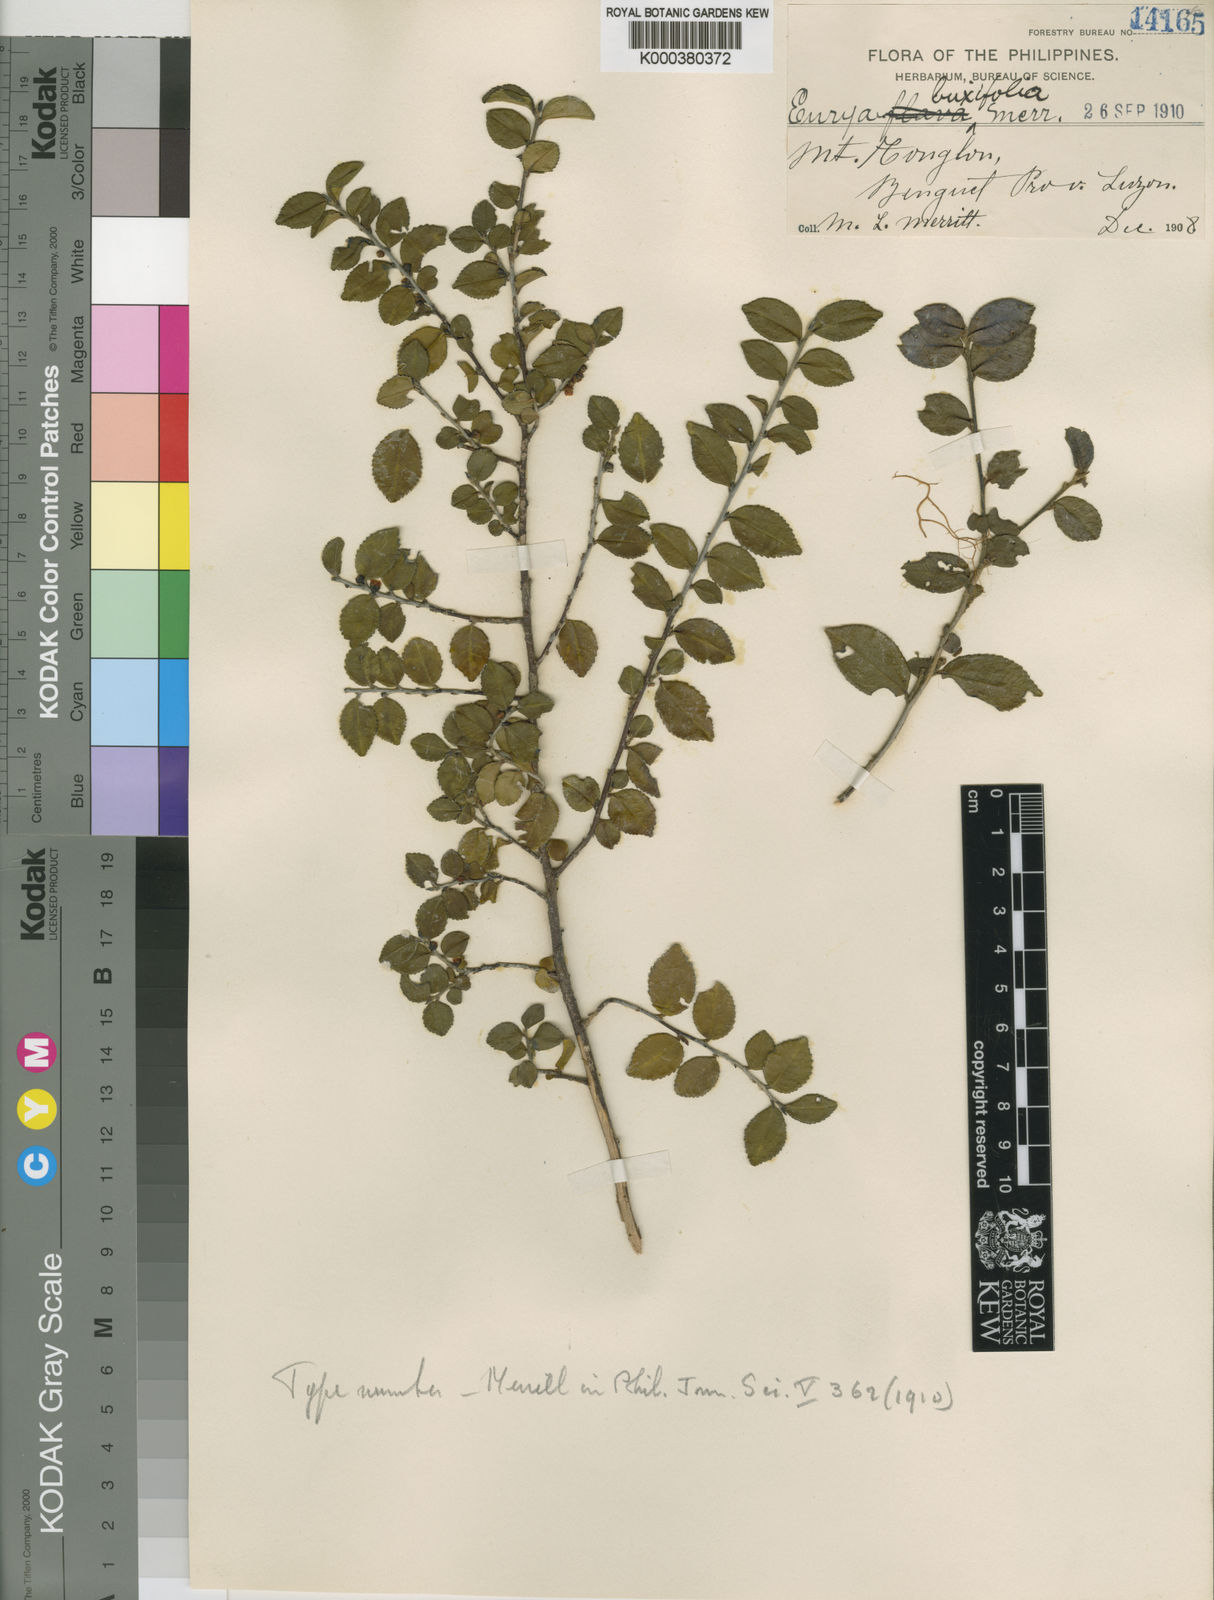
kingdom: Plantae
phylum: Tracheophyta
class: Magnoliopsida
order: Ericales
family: Pentaphylacaceae
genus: Eurya
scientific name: Eurya buxifolia
